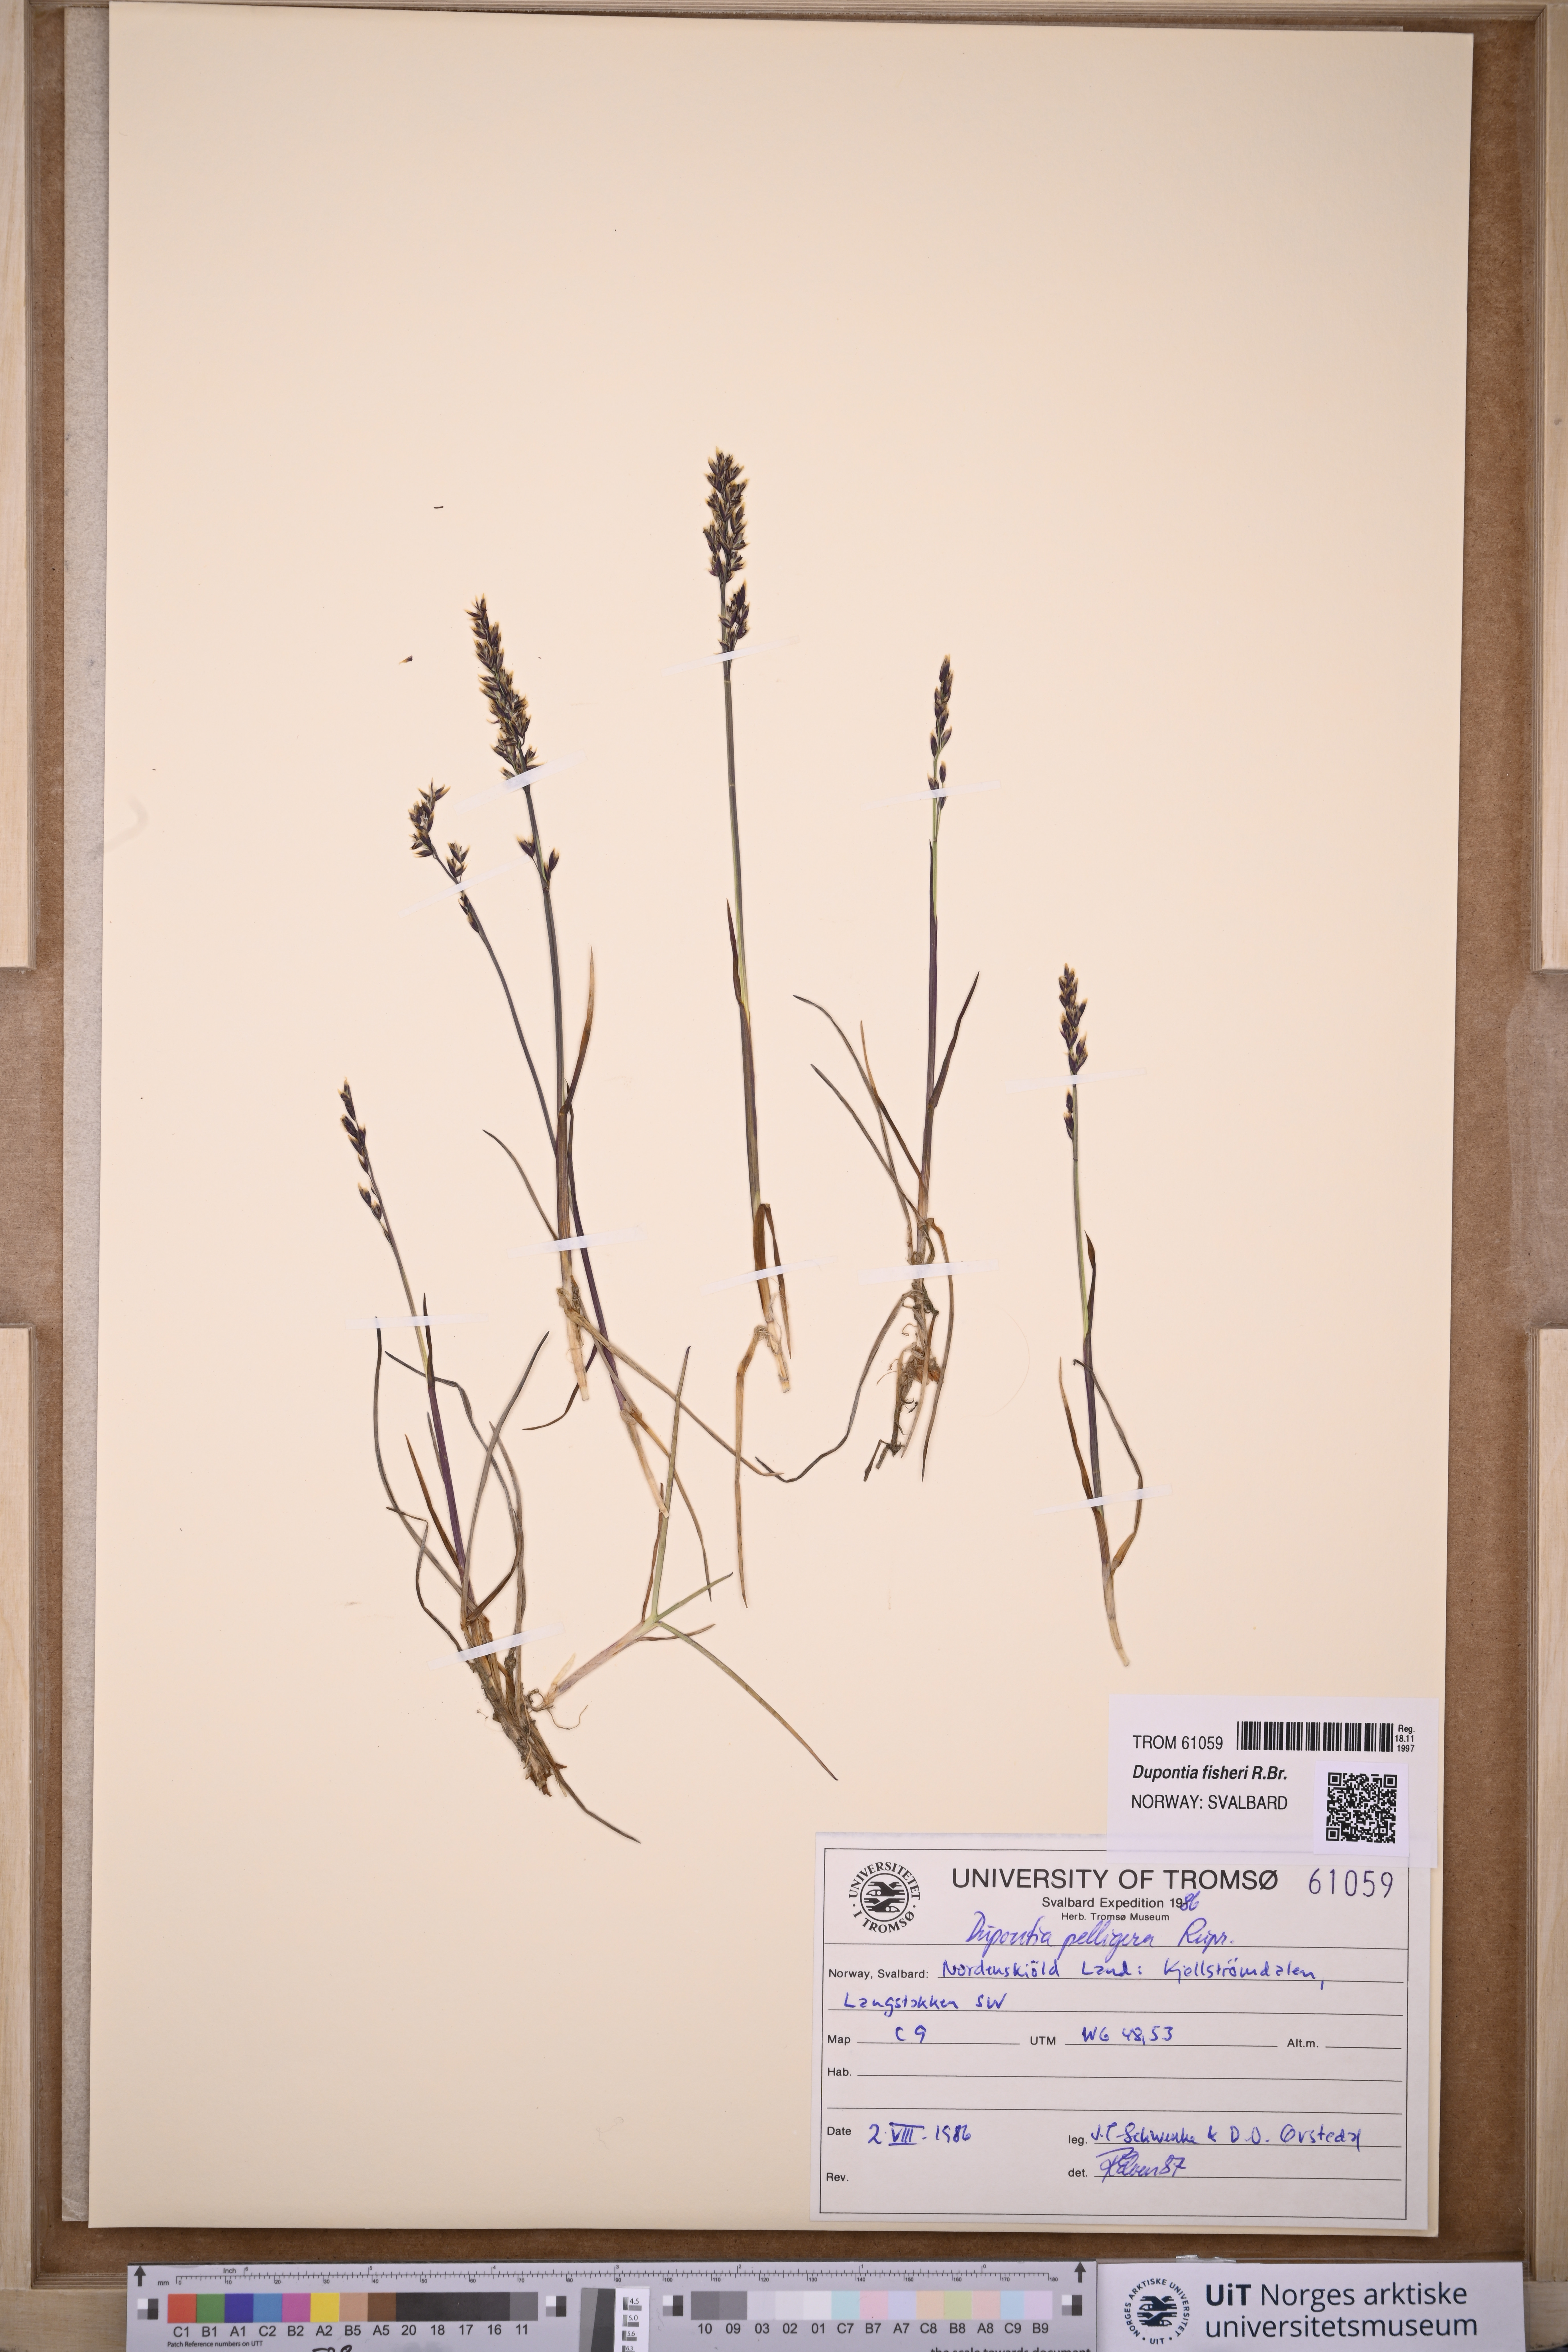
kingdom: Plantae
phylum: Tracheophyta
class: Liliopsida
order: Poales
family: Poaceae
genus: Dupontia
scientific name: Dupontia fisheri
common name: Tundra grass
